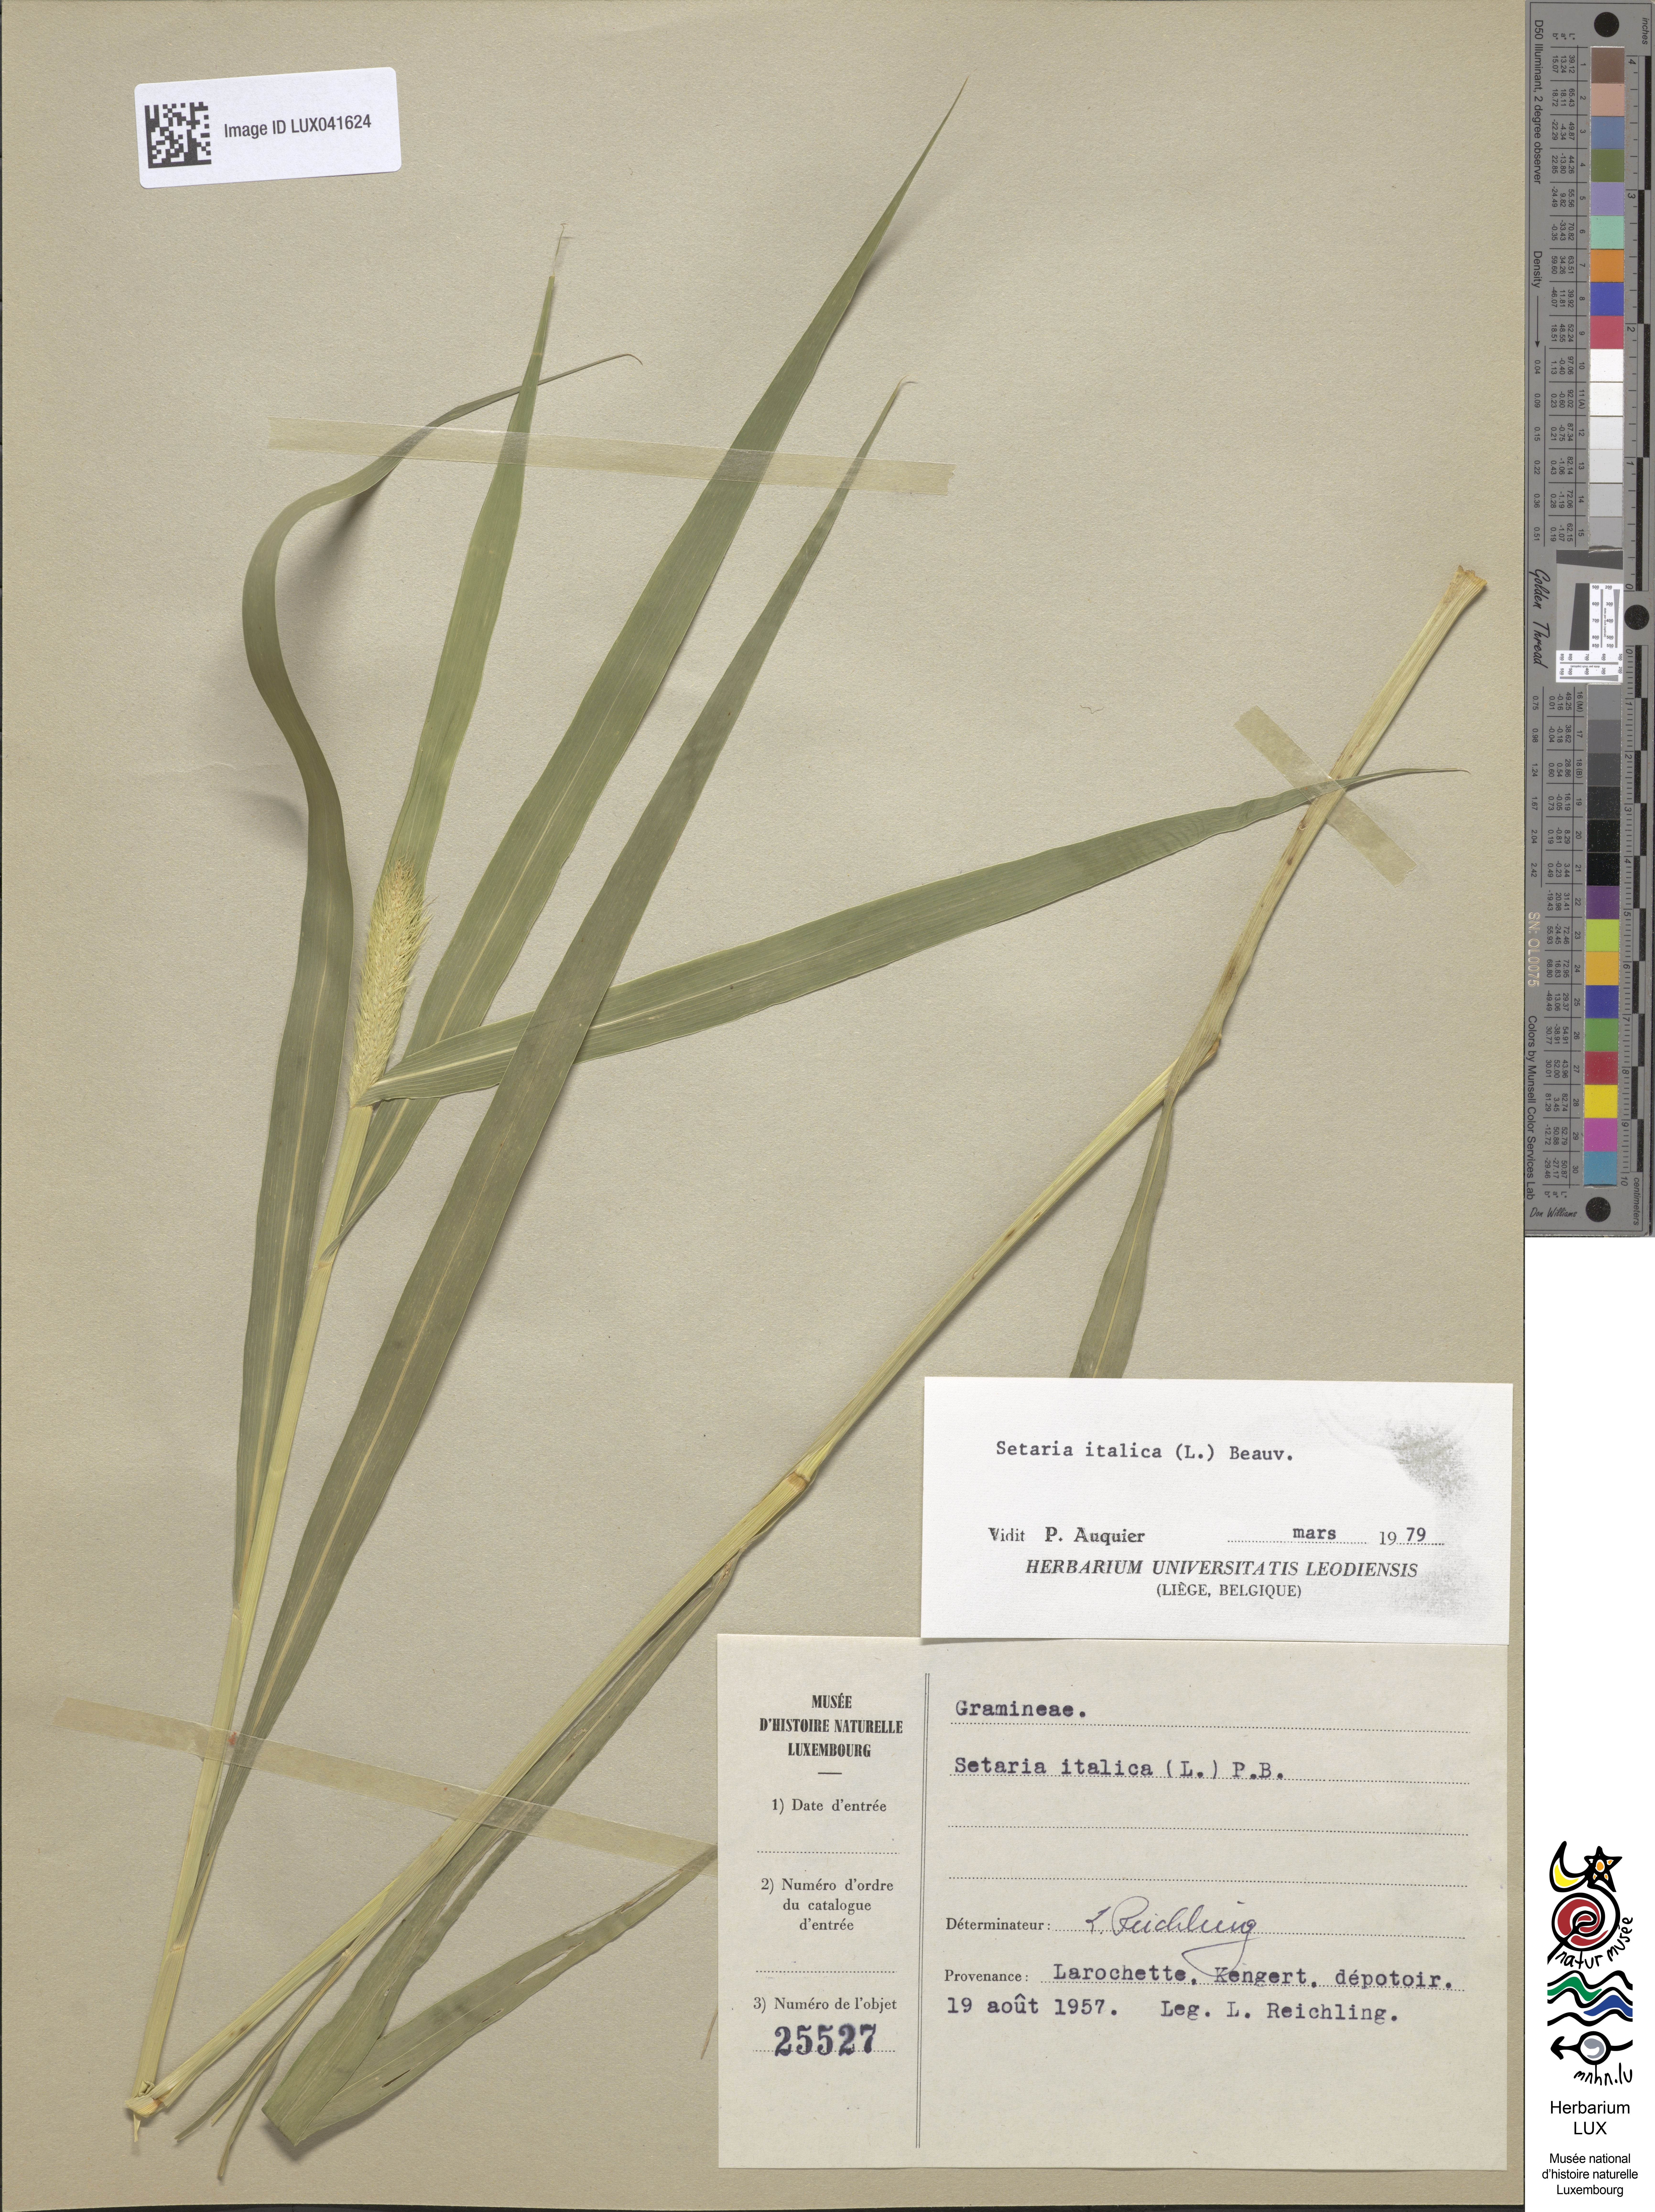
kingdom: Plantae
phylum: Tracheophyta
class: Liliopsida
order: Poales
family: Poaceae
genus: Setaria
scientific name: Setaria italica
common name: Foxtail bristle-grass
